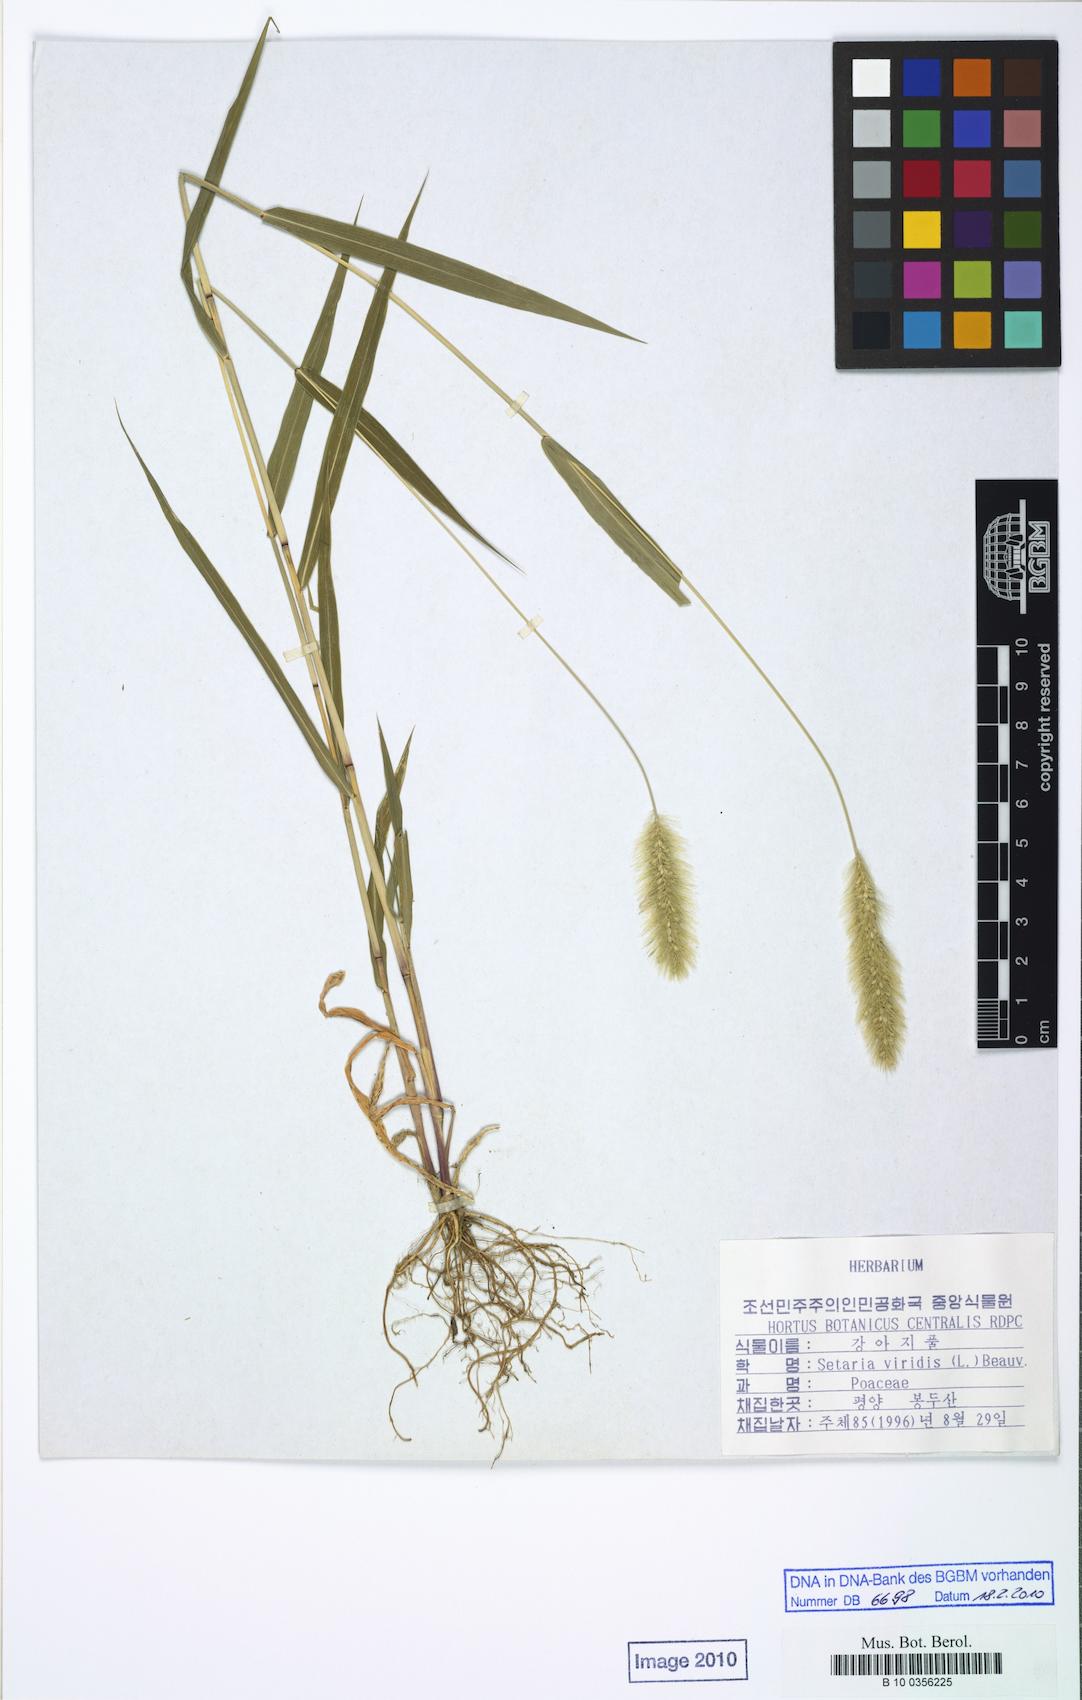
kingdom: Plantae
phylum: Tracheophyta
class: Liliopsida
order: Poales
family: Poaceae
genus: Setaria
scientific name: Setaria viridis
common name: Green bristlegrass
